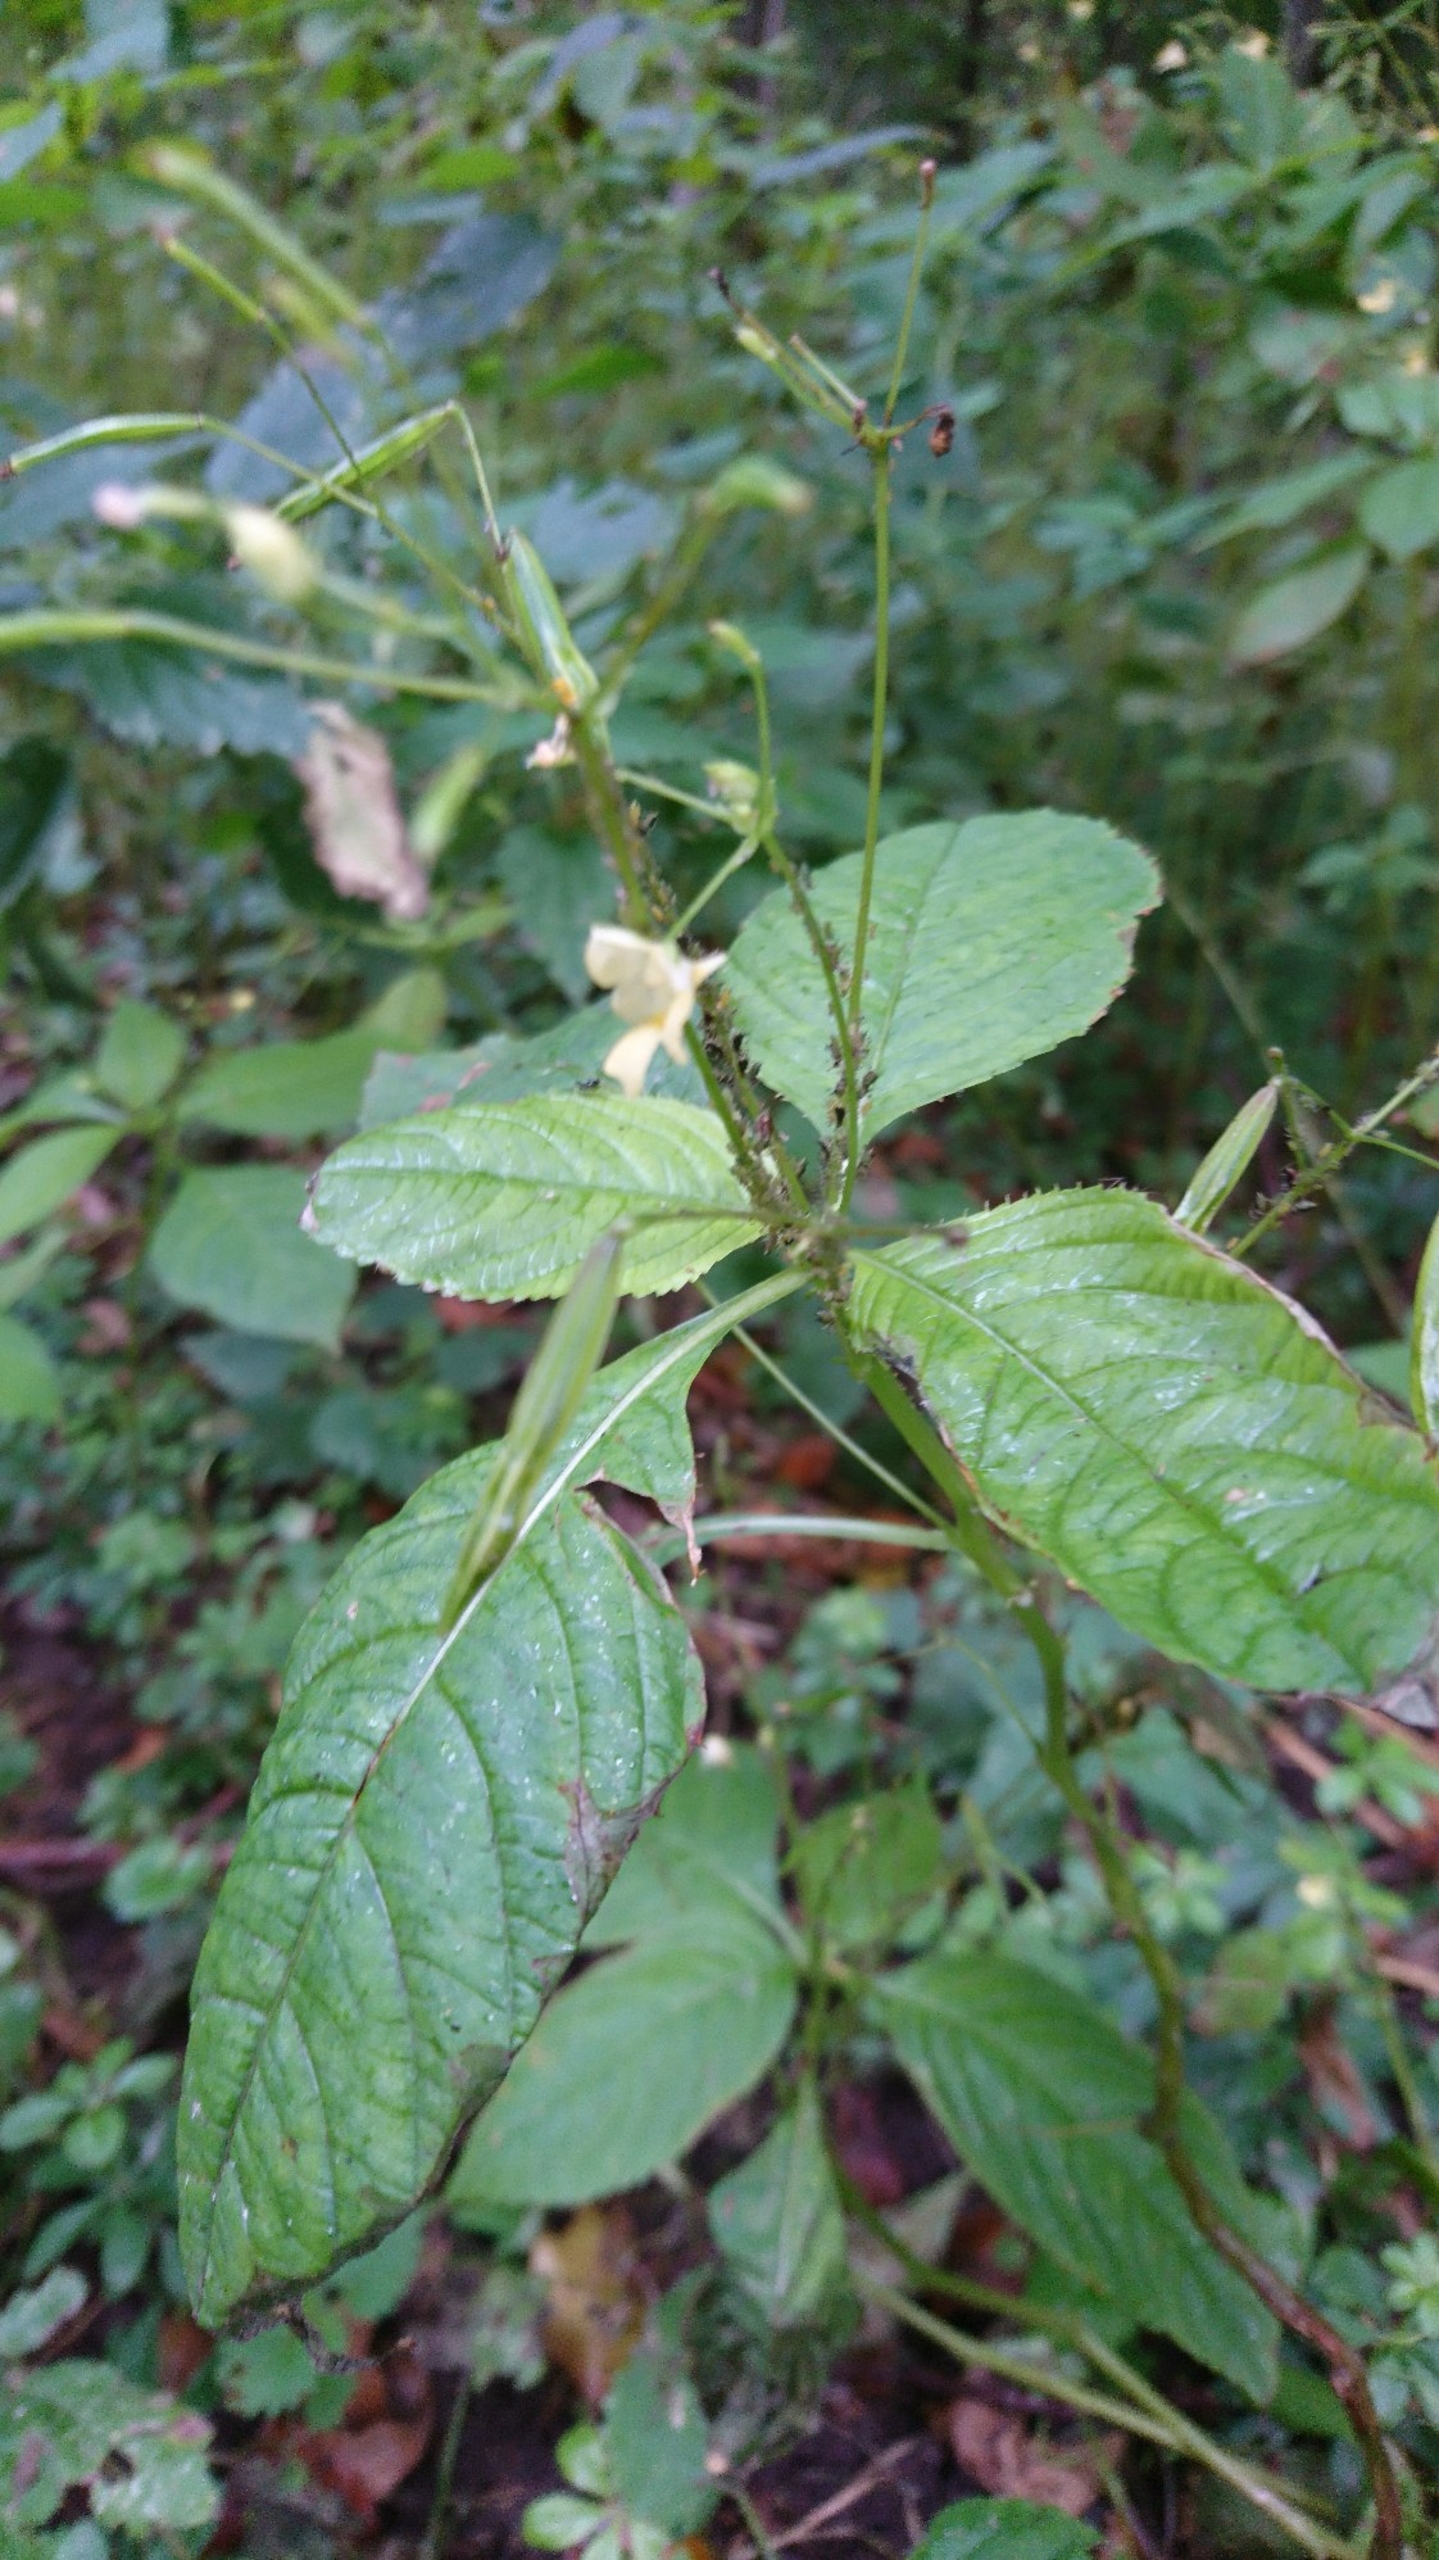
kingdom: Plantae
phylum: Tracheophyta
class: Magnoliopsida
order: Ericales
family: Balsaminaceae
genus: Impatiens
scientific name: Impatiens parviflora
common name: Småblomstret balsamin
